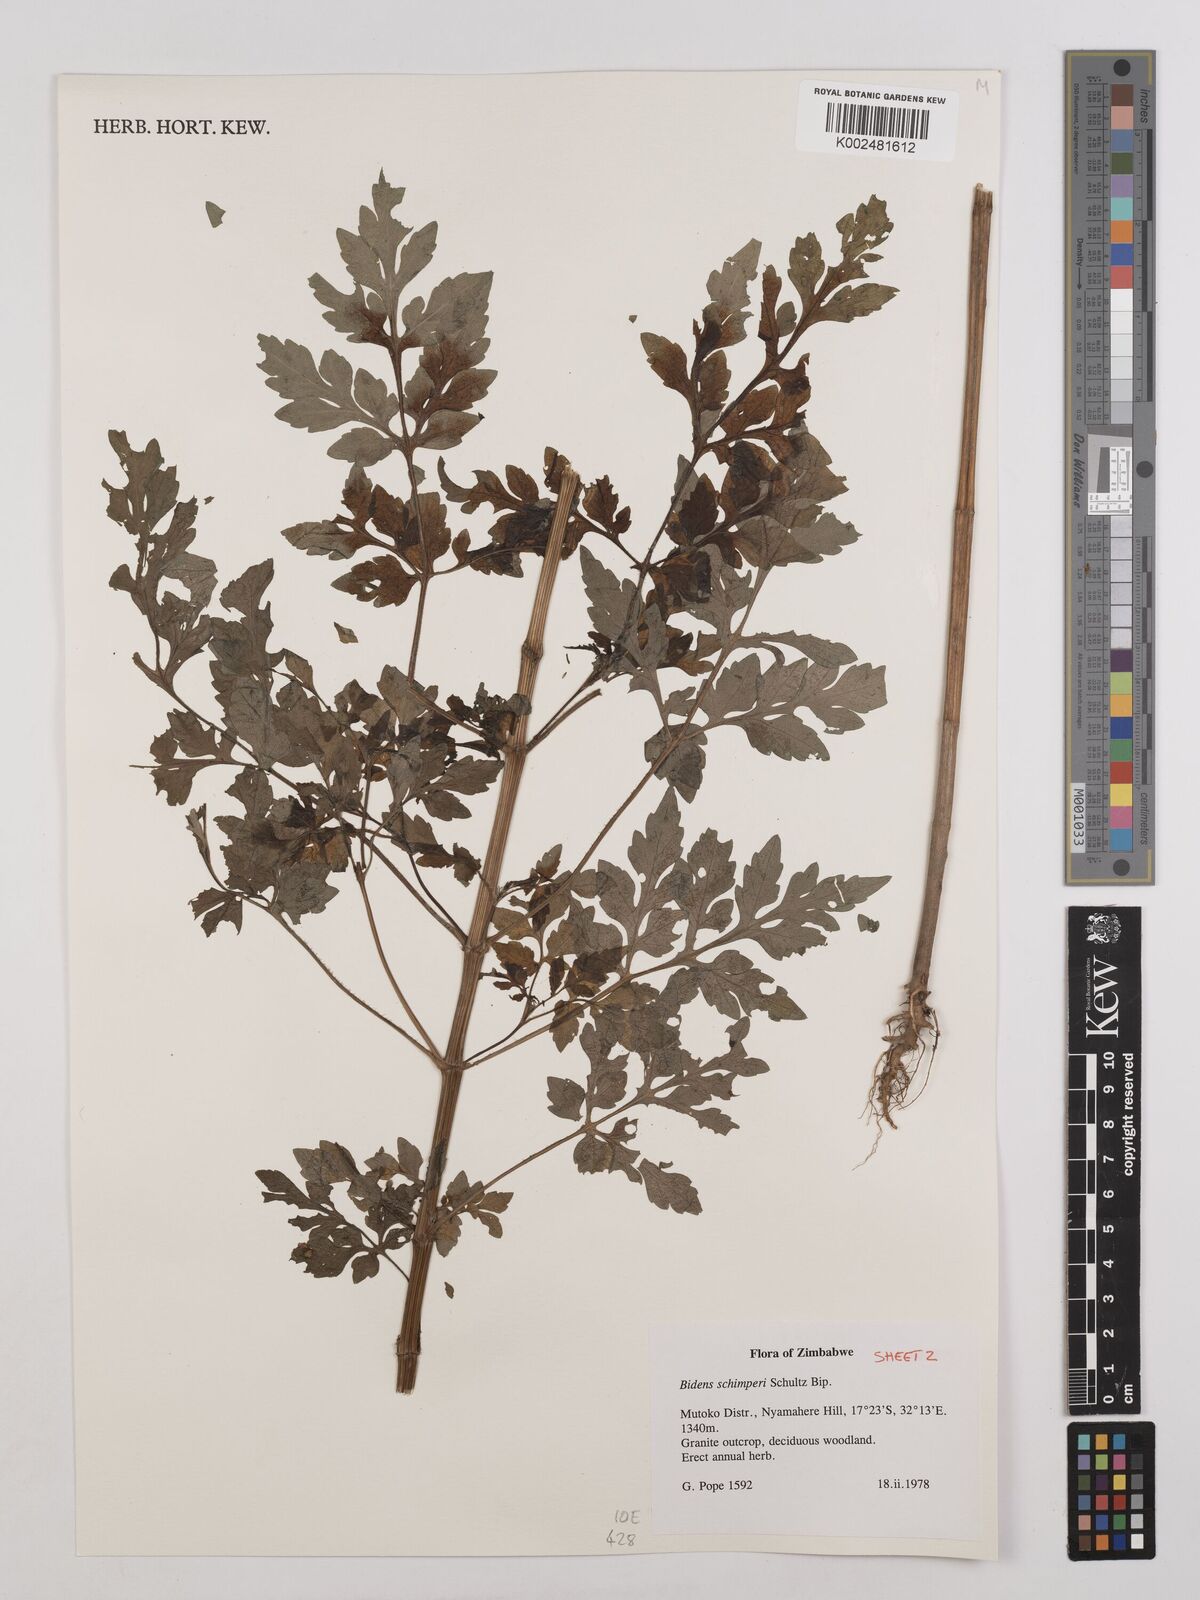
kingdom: Plantae
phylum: Tracheophyta
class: Magnoliopsida
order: Asterales
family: Asteraceae
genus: Bidens
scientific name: Bidens schimperi
